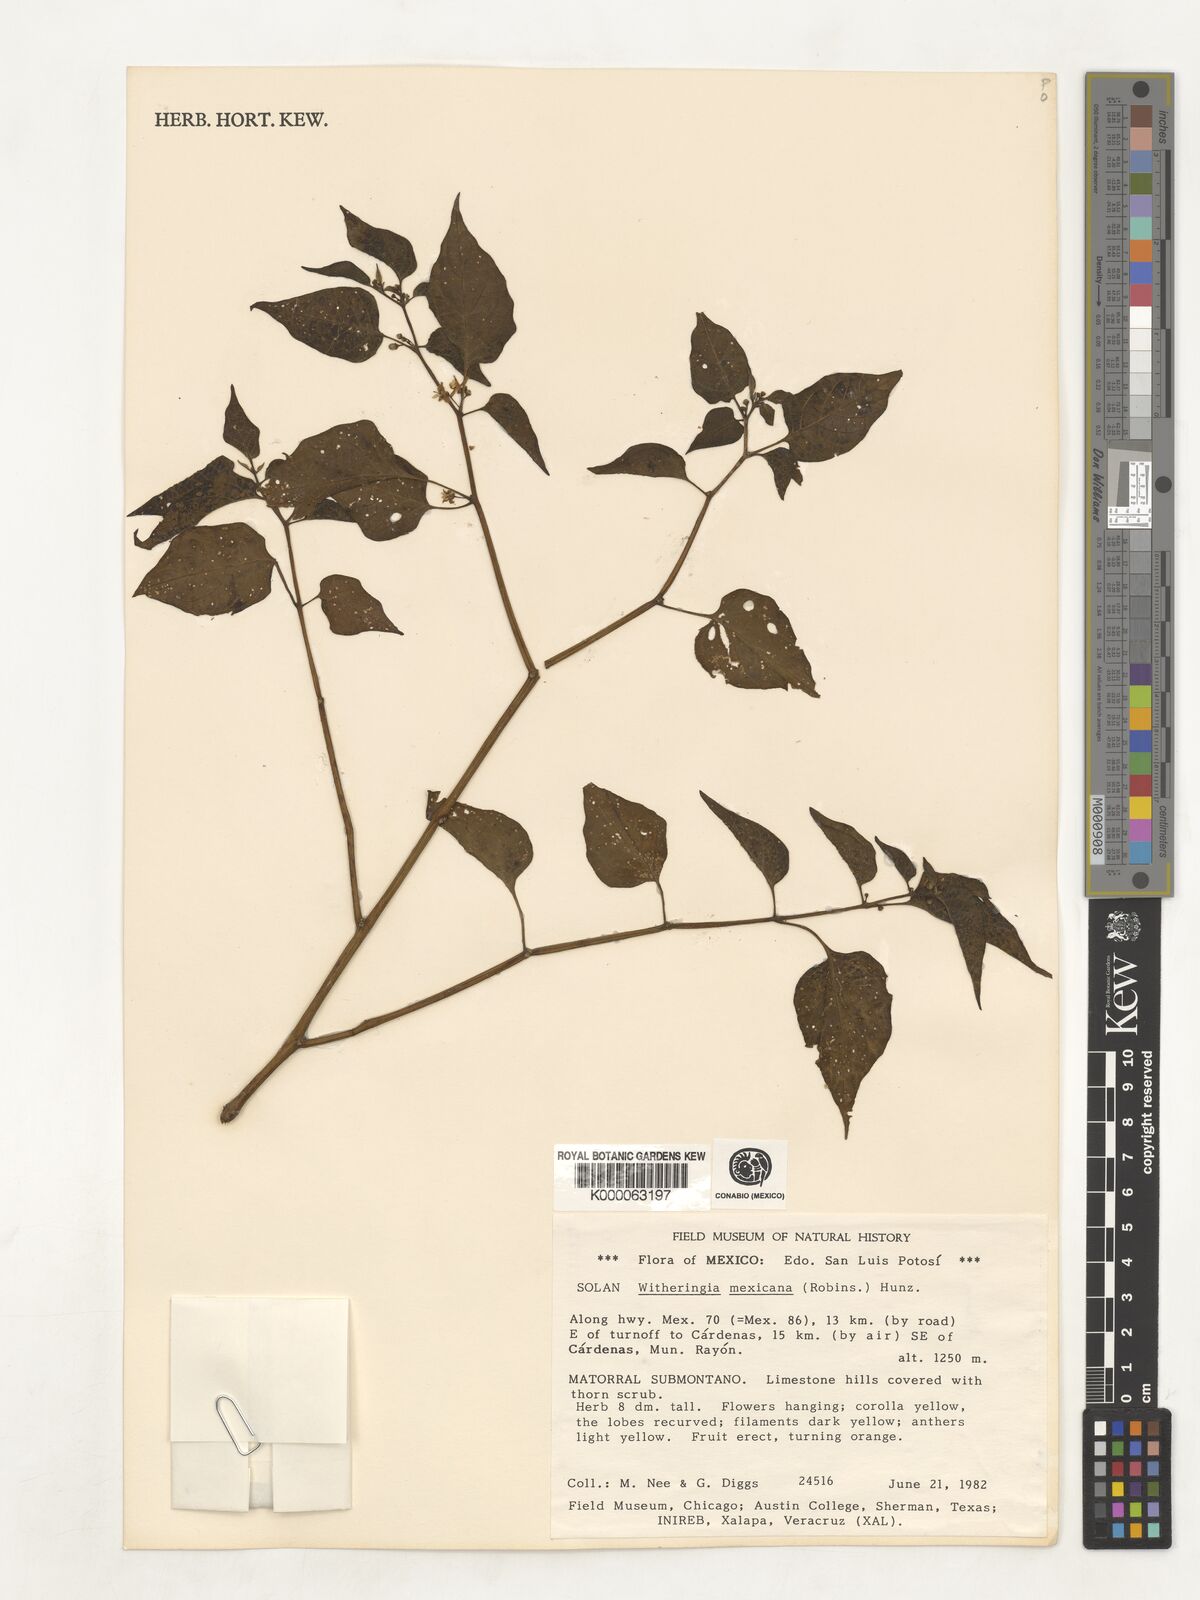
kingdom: Plantae
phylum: Tracheophyta
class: Magnoliopsida
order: Solanales
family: Solanaceae
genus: Witheringia
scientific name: Witheringia mexicana
